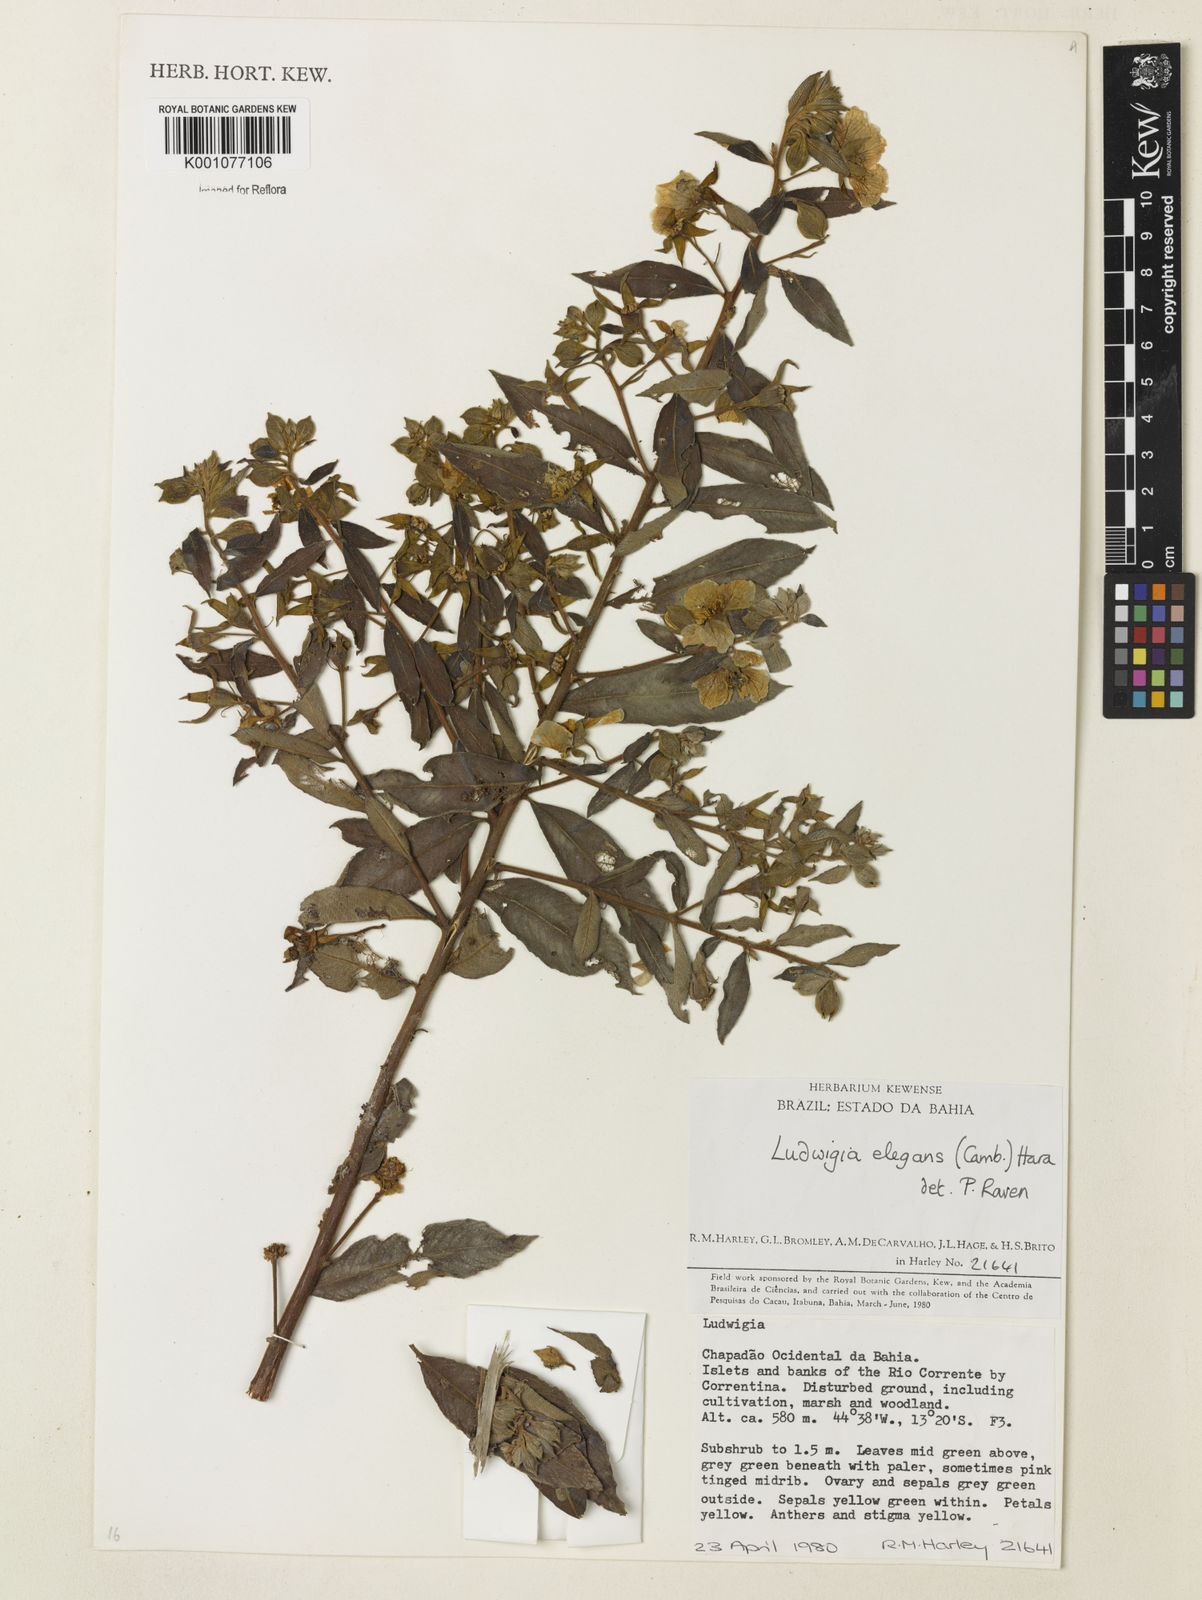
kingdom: Plantae
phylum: Tracheophyta
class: Magnoliopsida
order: Myrtales
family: Onagraceae
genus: Ludwigia
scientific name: Ludwigia elegans
